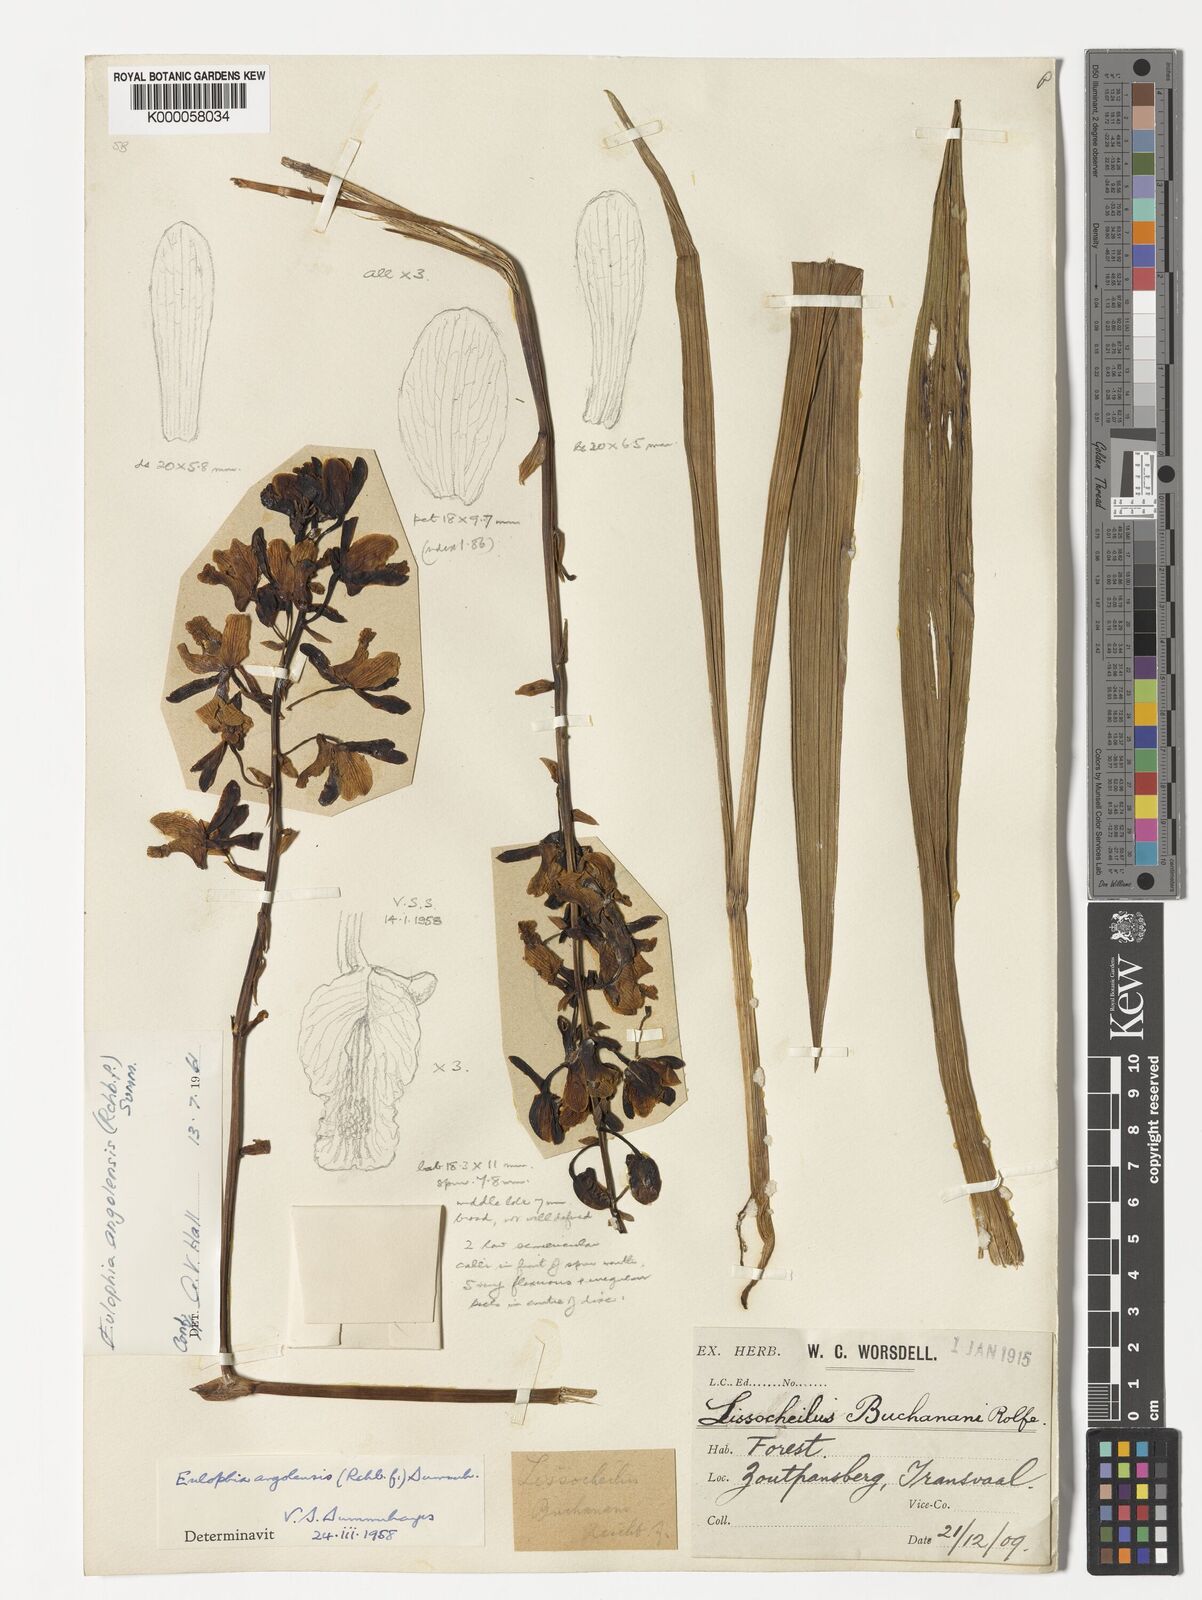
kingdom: Plantae
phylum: Tracheophyta
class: Liliopsida
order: Asparagales
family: Orchidaceae
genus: Eulophia
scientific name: Eulophia angolensis
